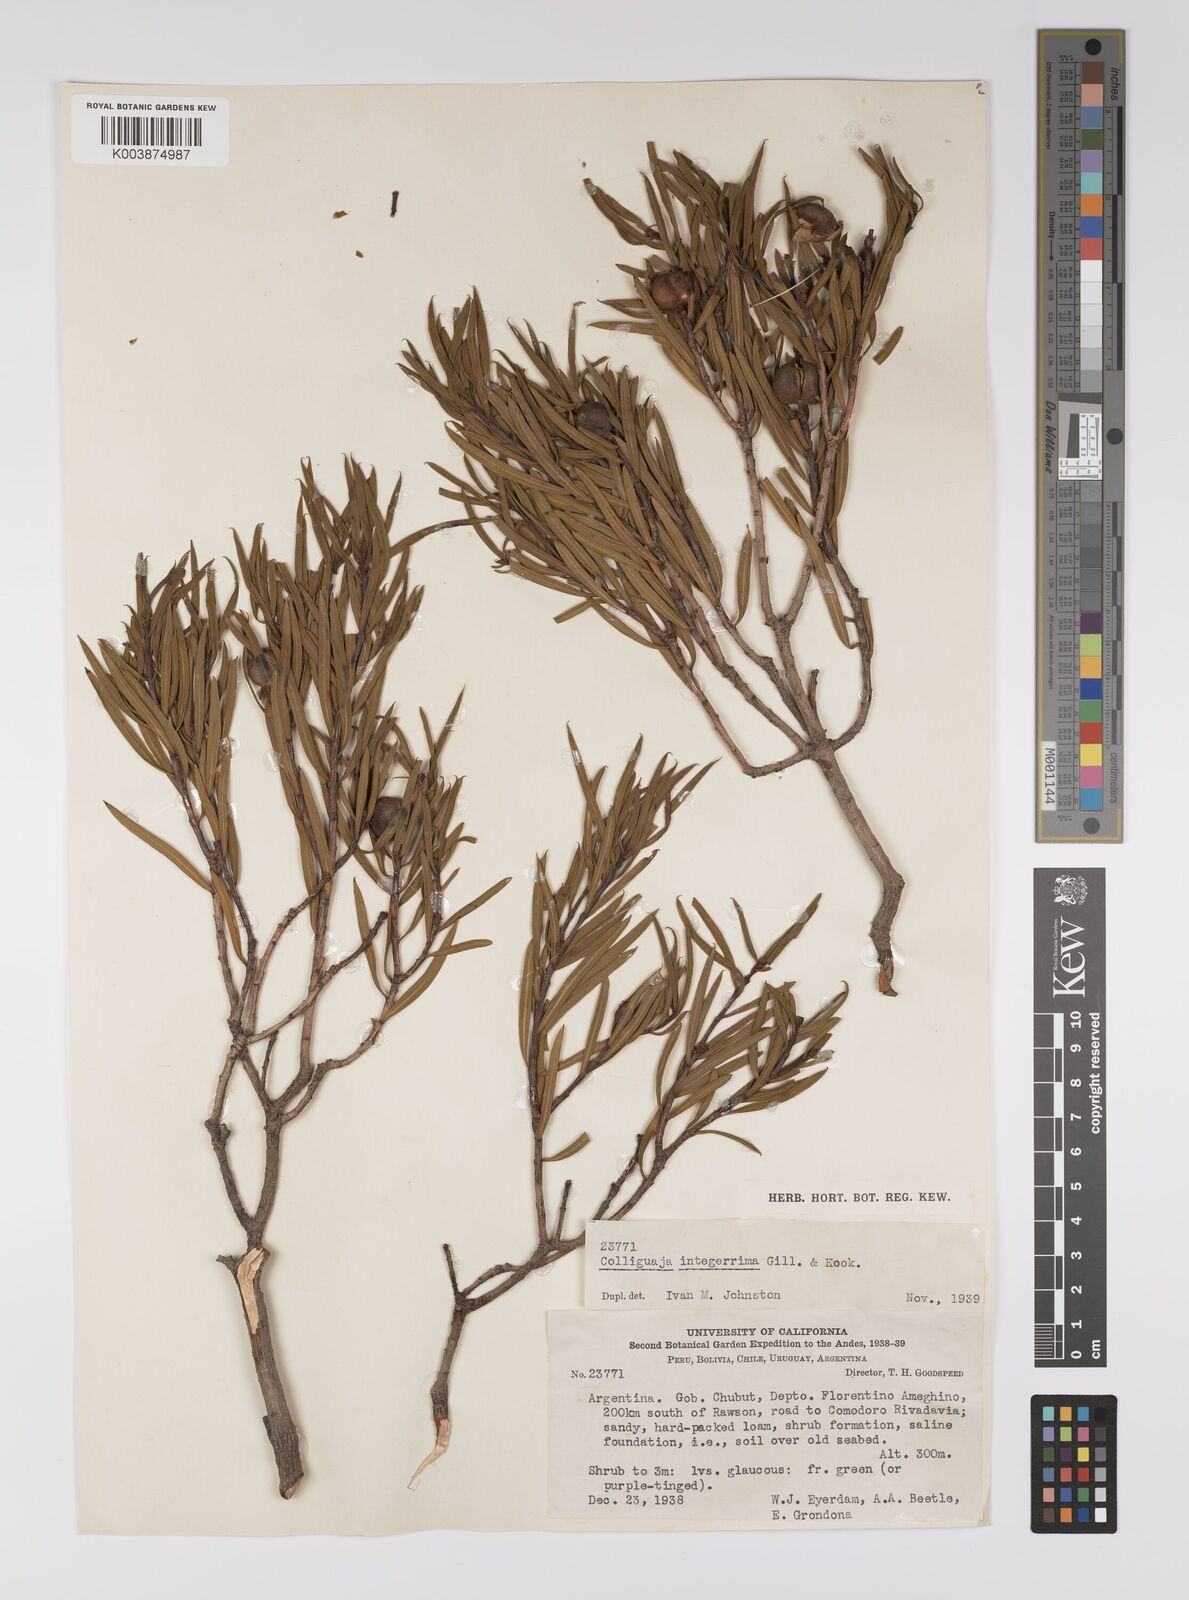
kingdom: Plantae
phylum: Tracheophyta
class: Magnoliopsida
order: Malpighiales
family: Euphorbiaceae
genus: Colliguaja
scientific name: Colliguaja integerrima
